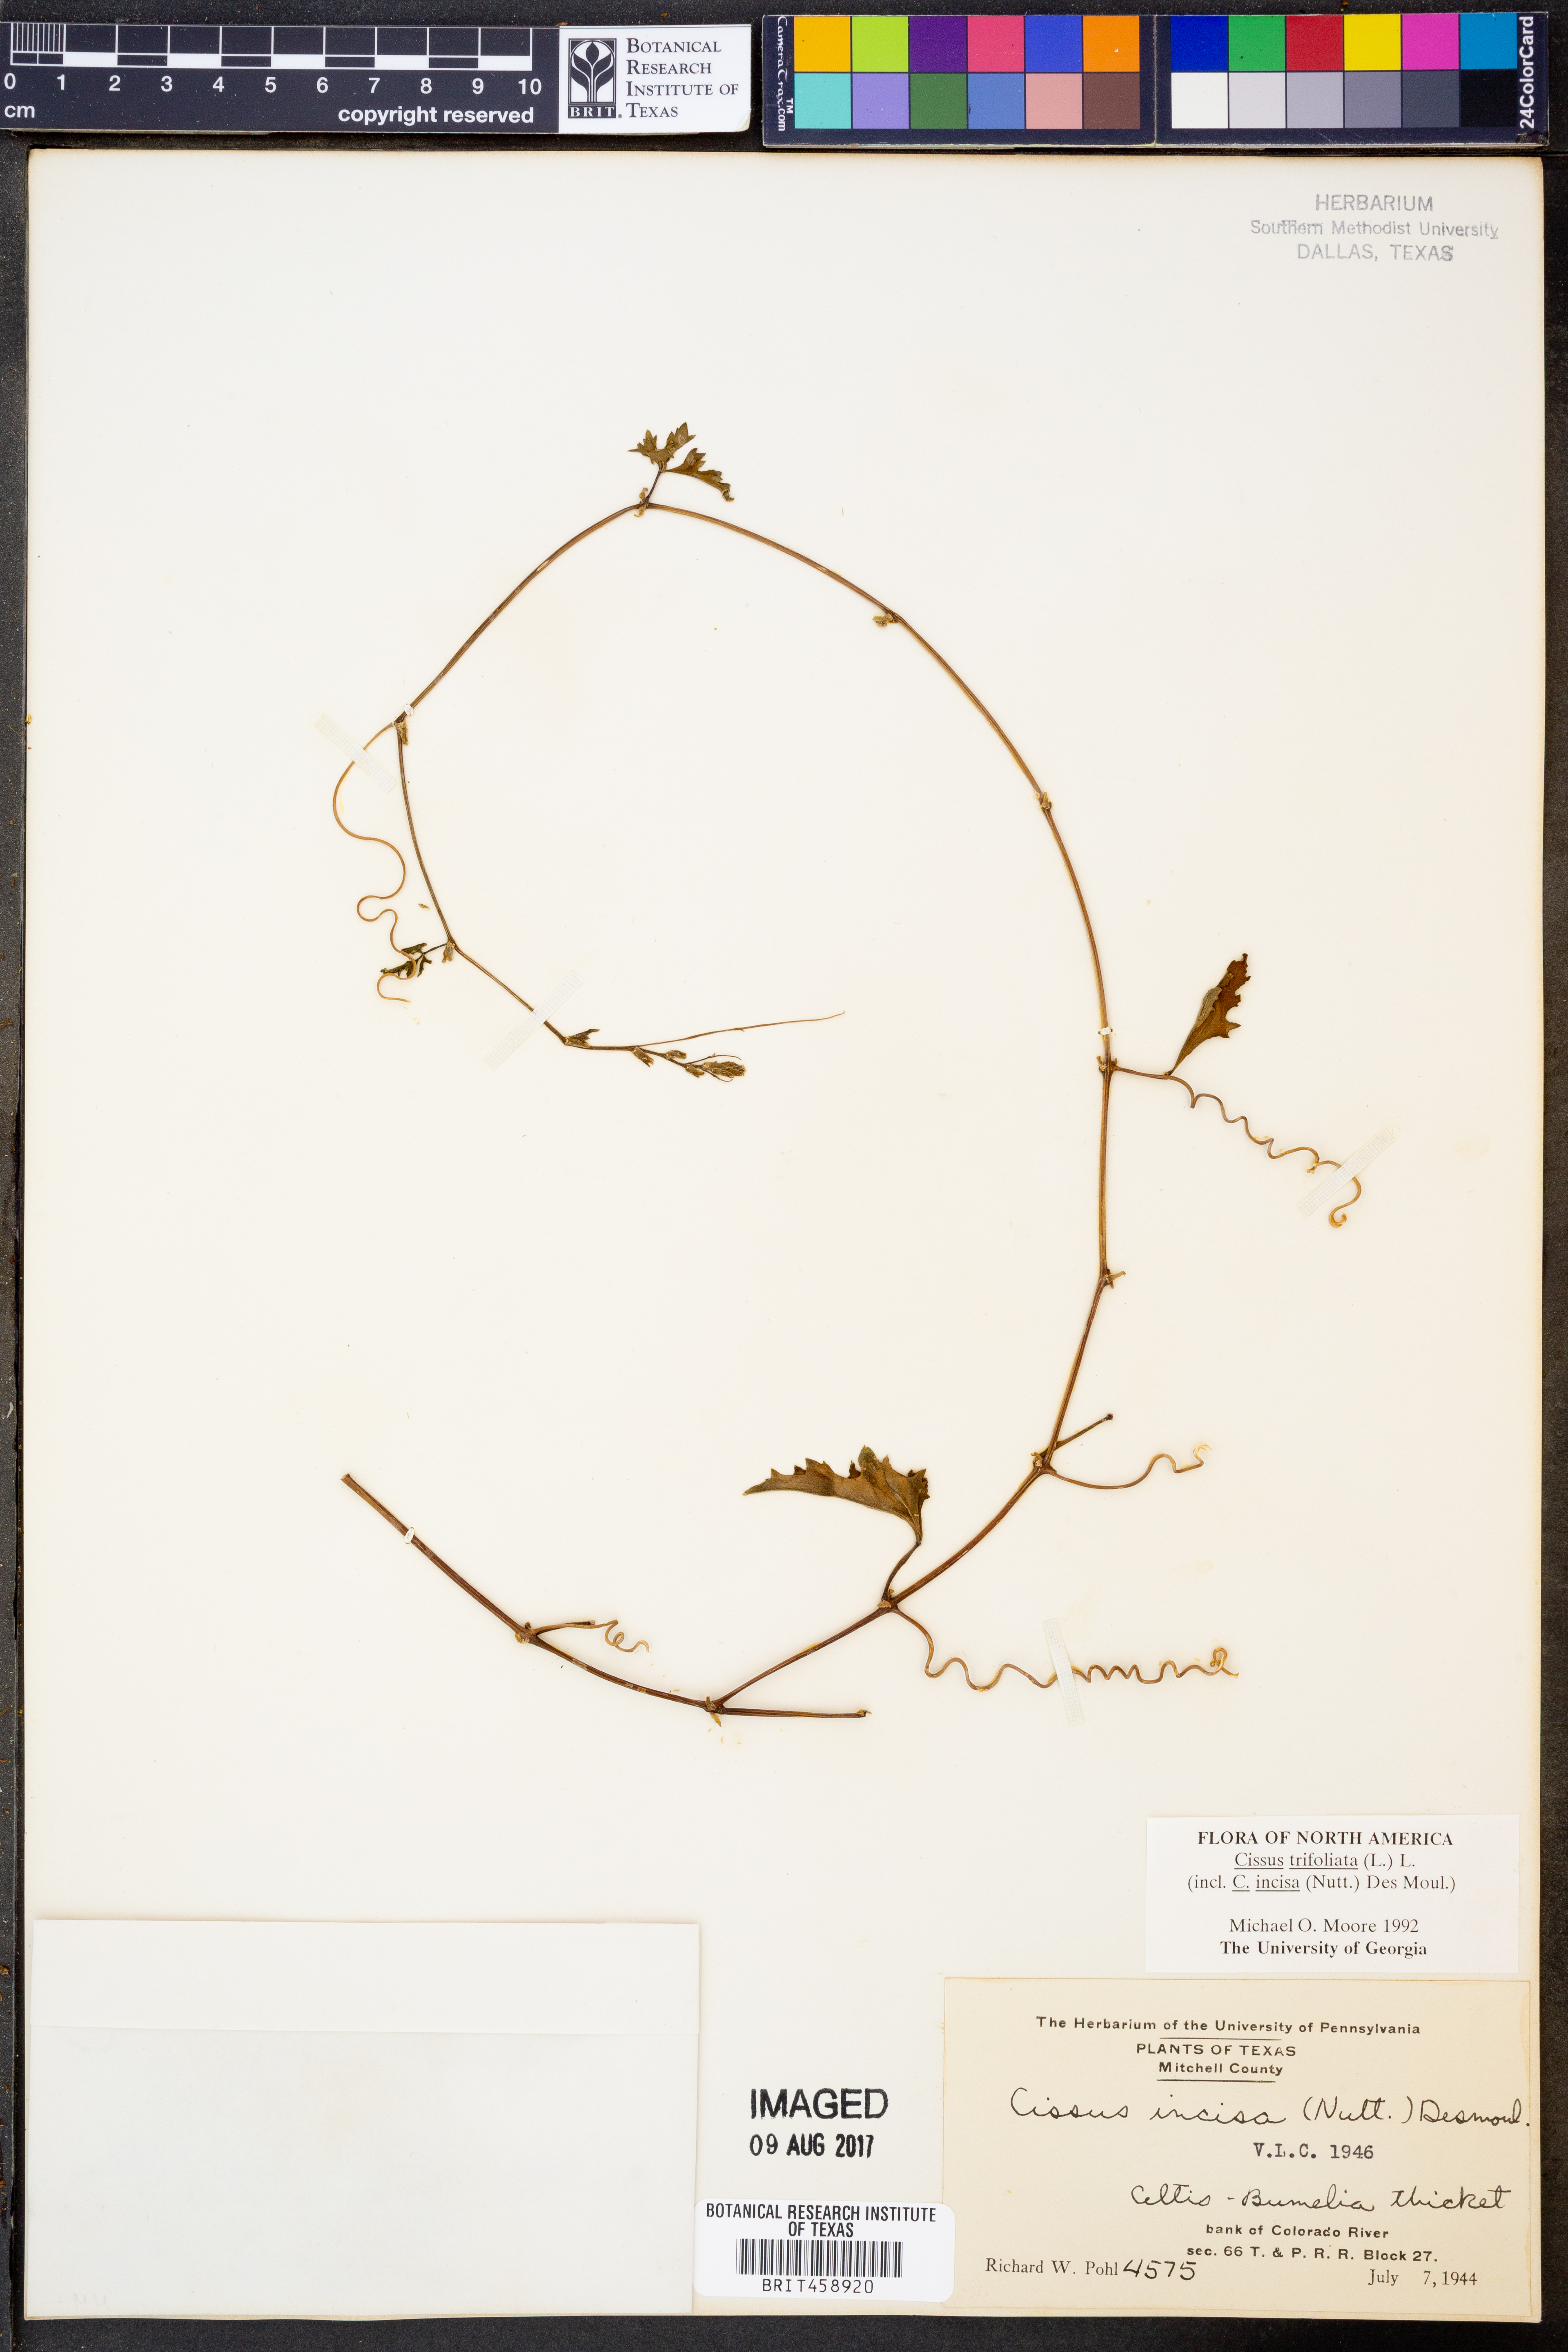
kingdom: Plantae
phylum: Tracheophyta
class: Magnoliopsida
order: Vitales
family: Vitaceae
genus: Cissus
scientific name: Cissus trifoliata
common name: Vine-sorrel
